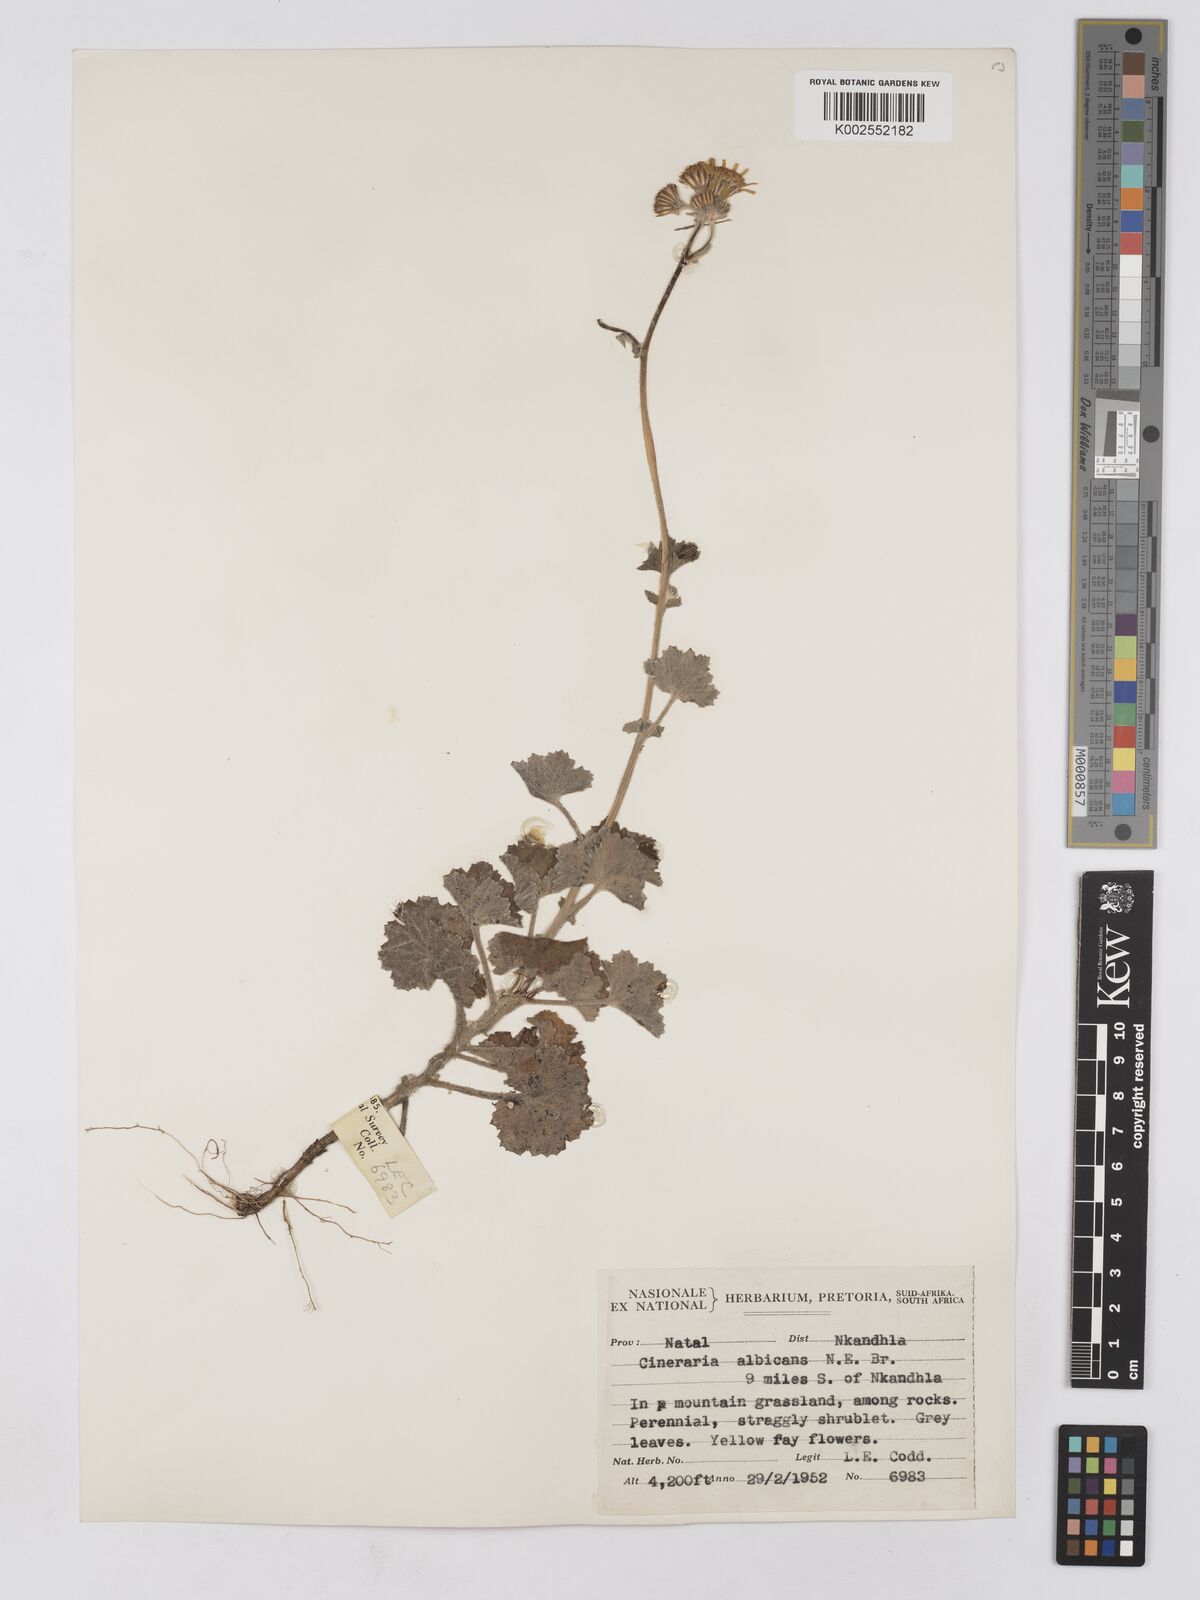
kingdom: Plantae
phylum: Tracheophyta
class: Magnoliopsida
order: Asterales
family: Asteraceae
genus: Cineraria
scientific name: Cineraria albicans
